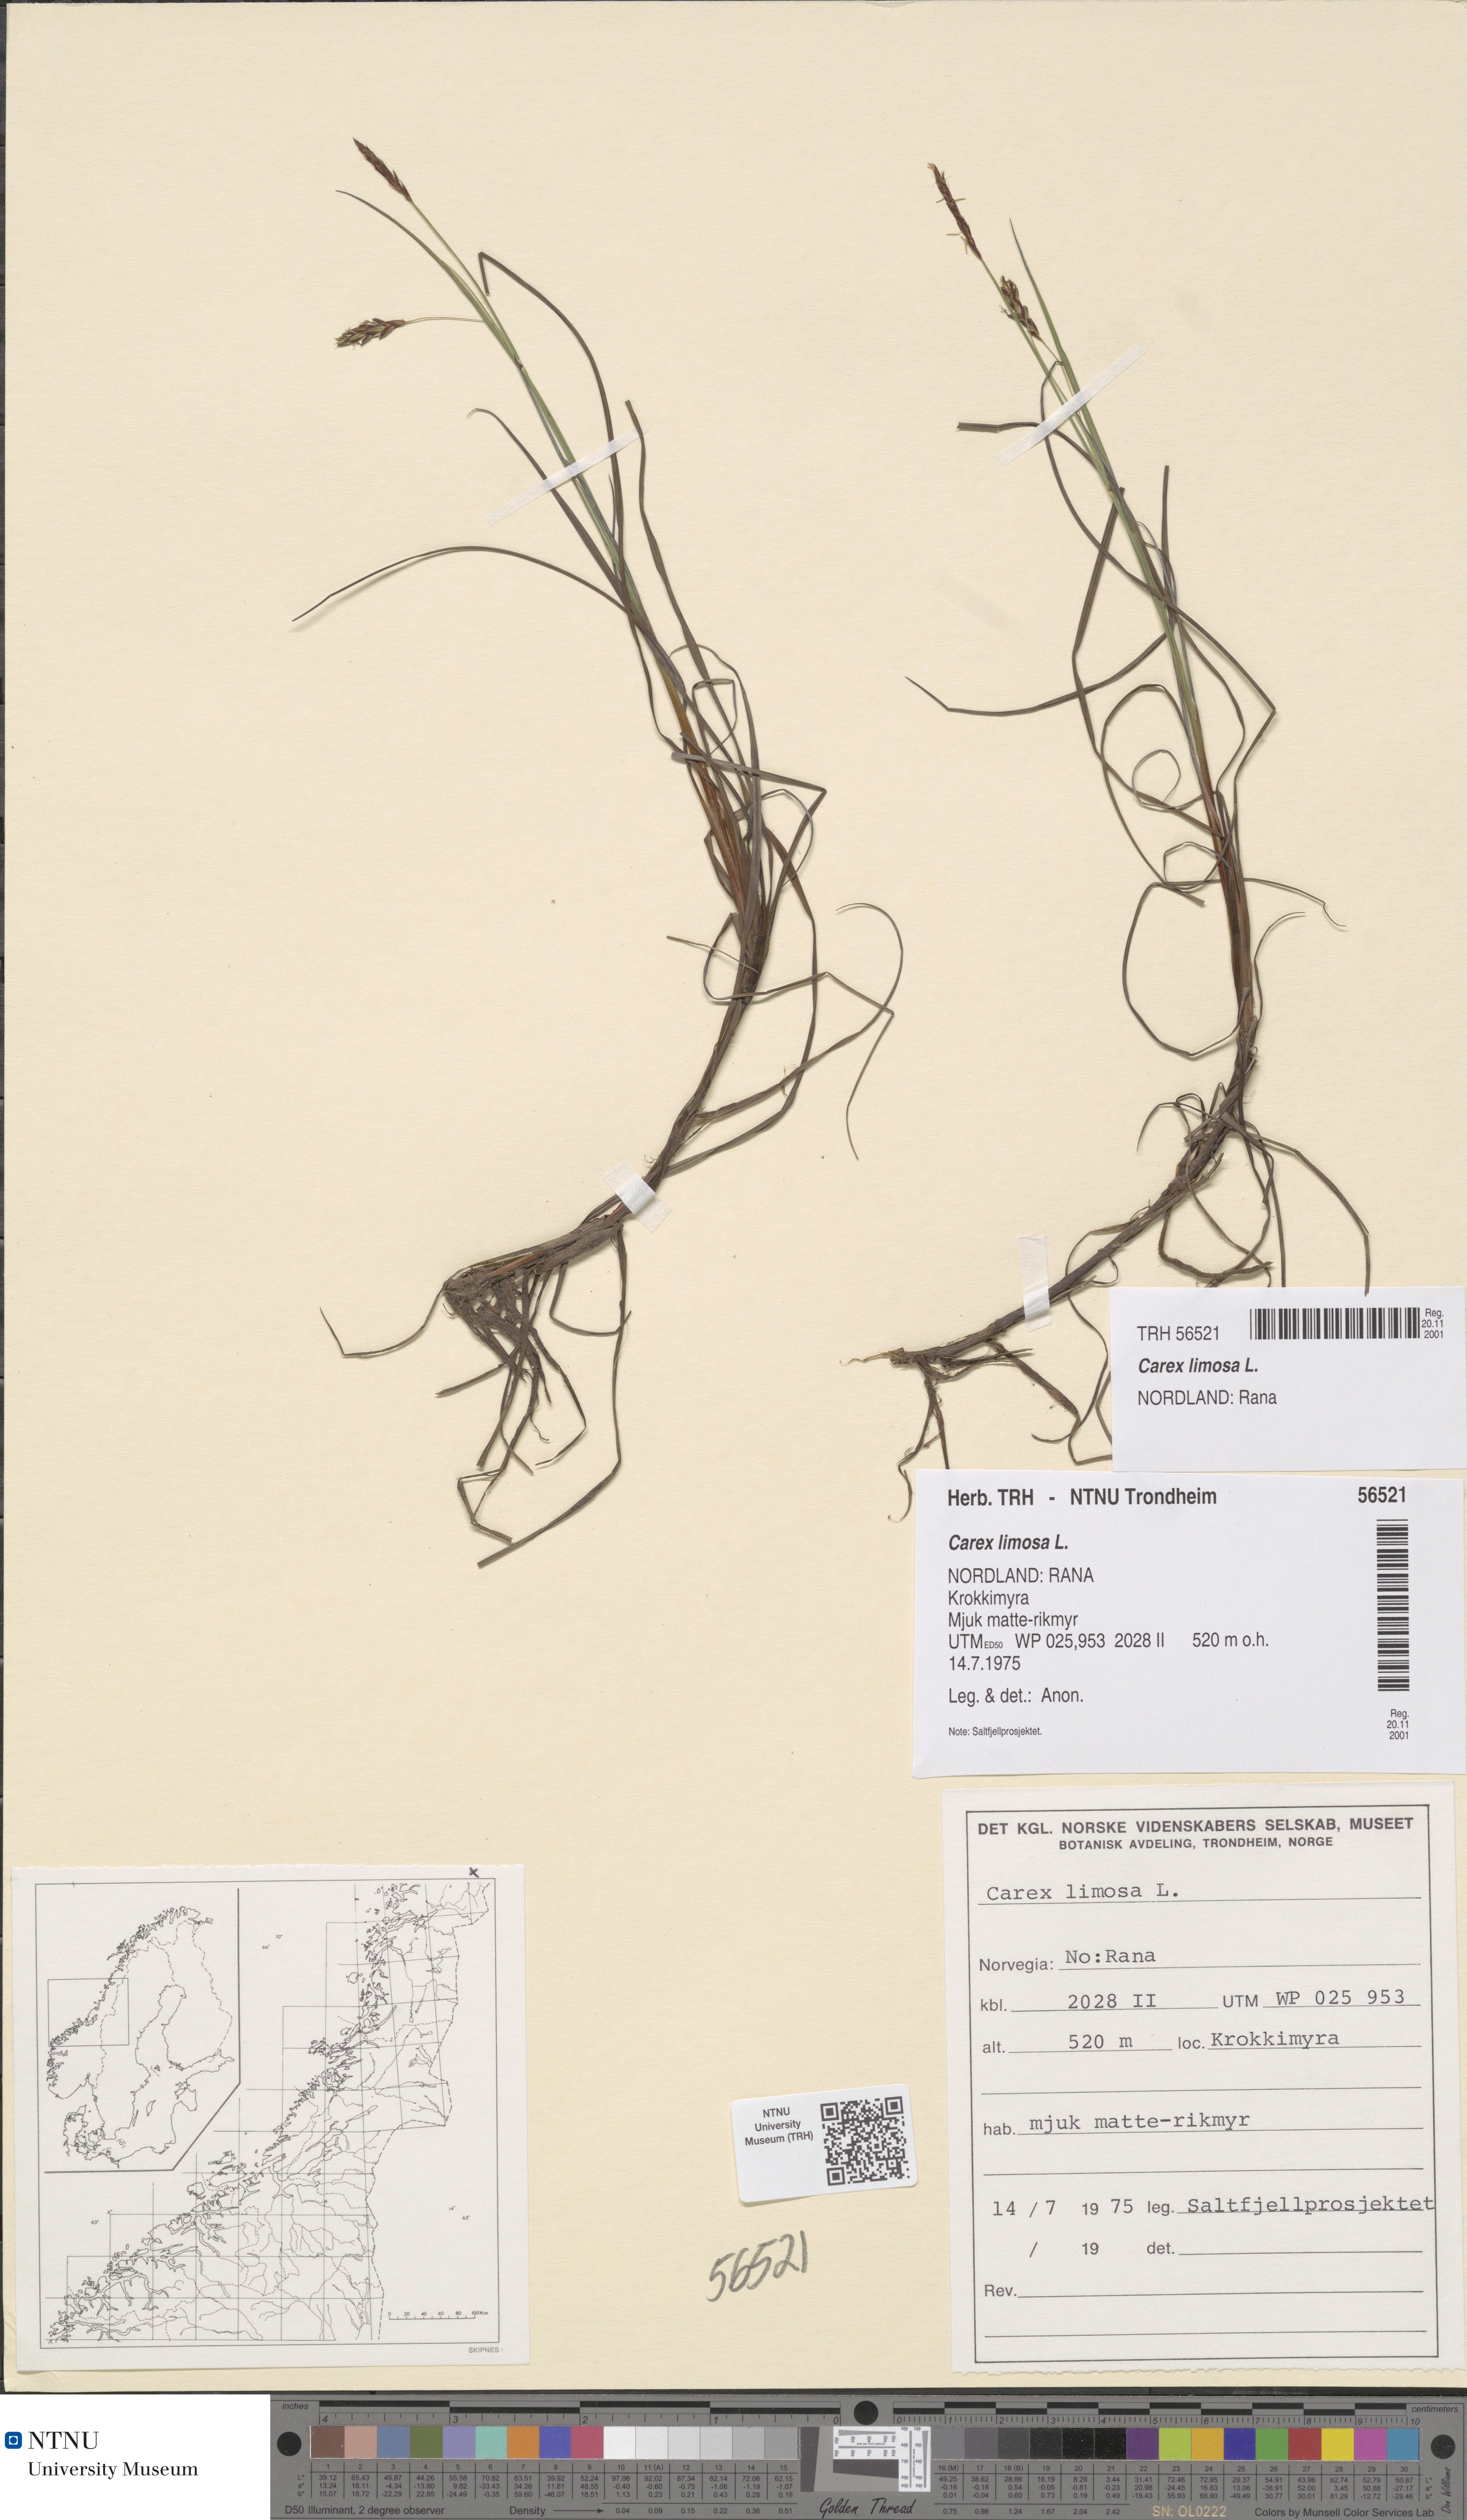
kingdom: Plantae
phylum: Tracheophyta
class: Liliopsida
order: Poales
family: Cyperaceae
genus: Carex
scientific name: Carex limosa
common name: Bog sedge
